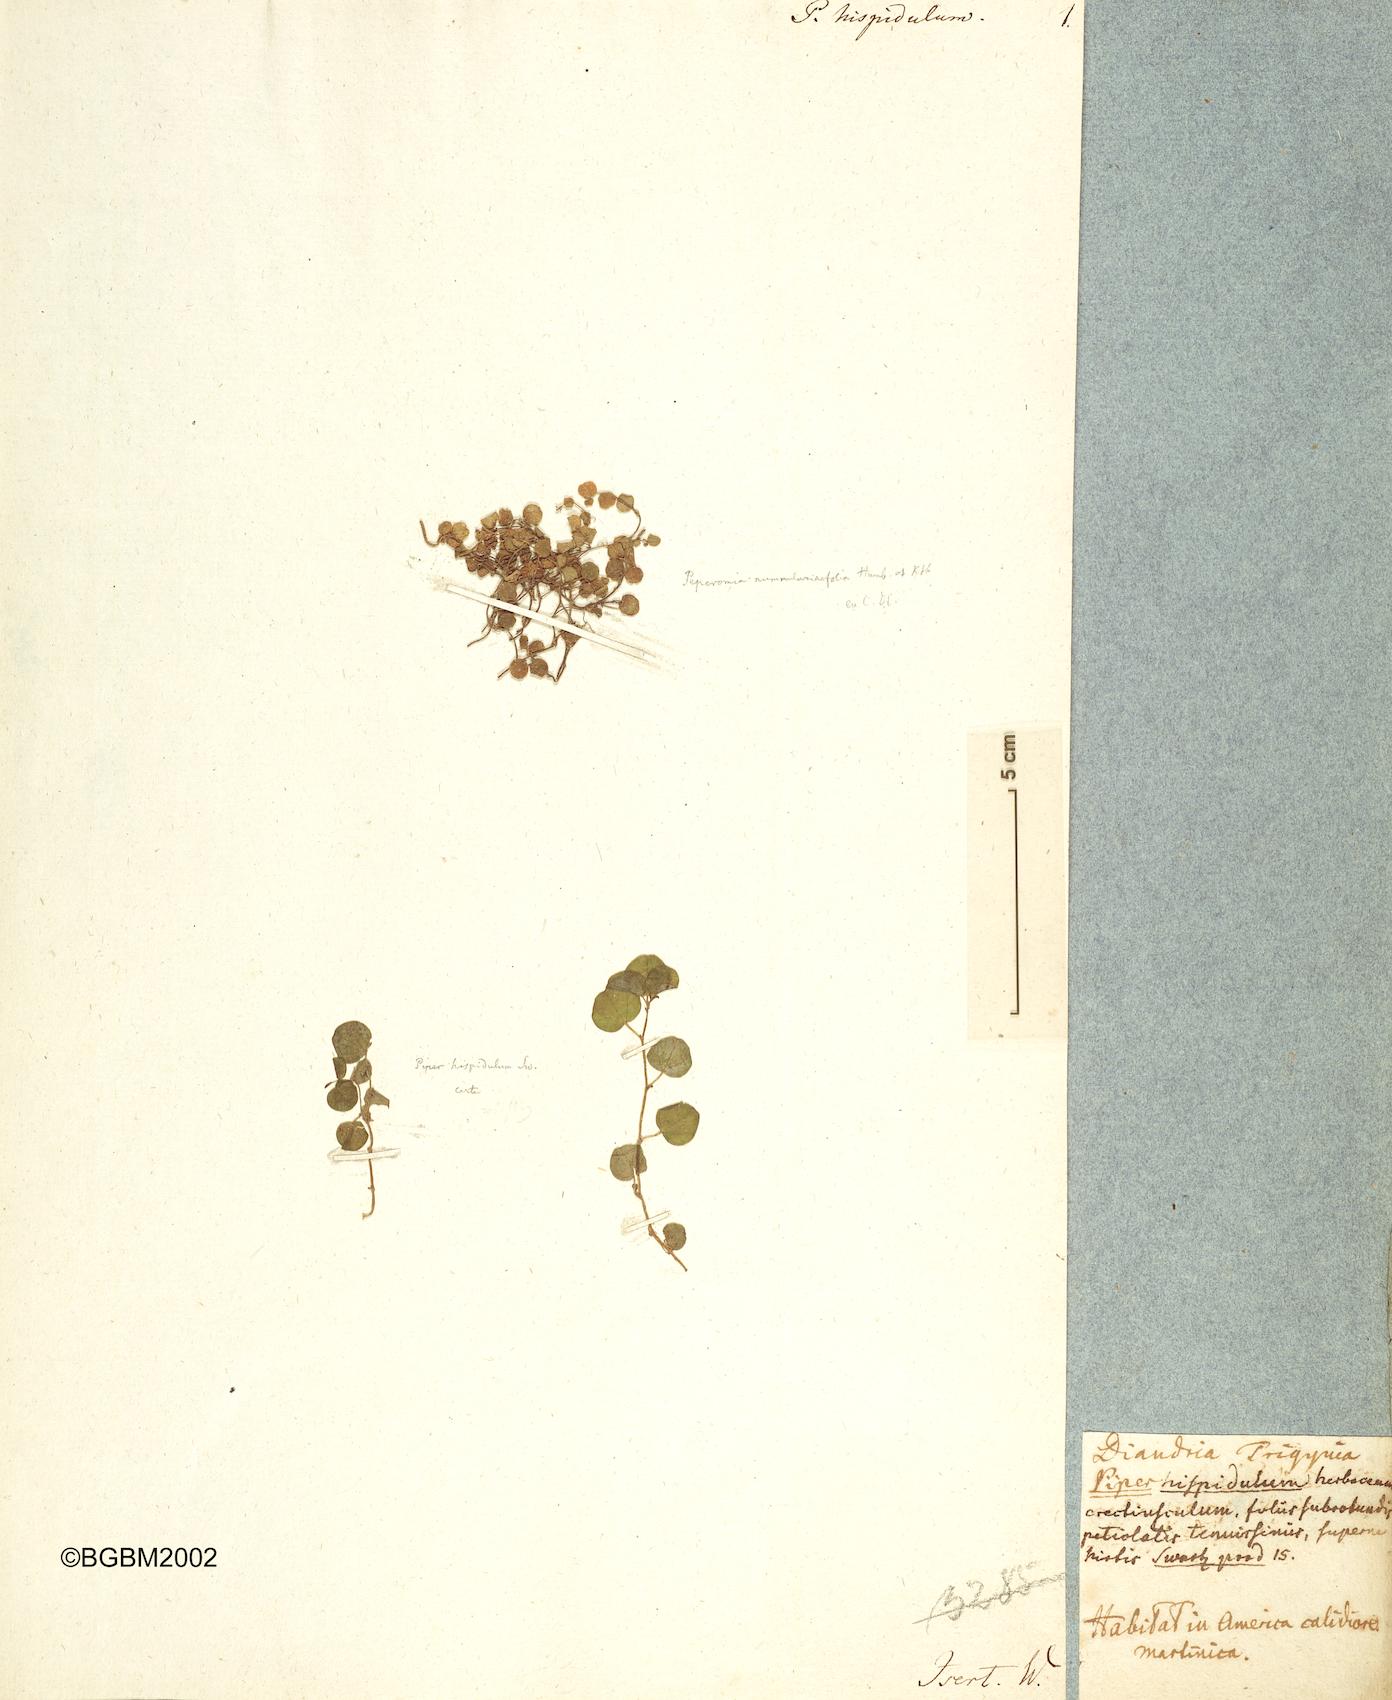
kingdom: Plantae
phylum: Tracheophyta
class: Magnoliopsida
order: Piperales
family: Piperaceae
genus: Peperomia
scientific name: Peperomia hispidula
